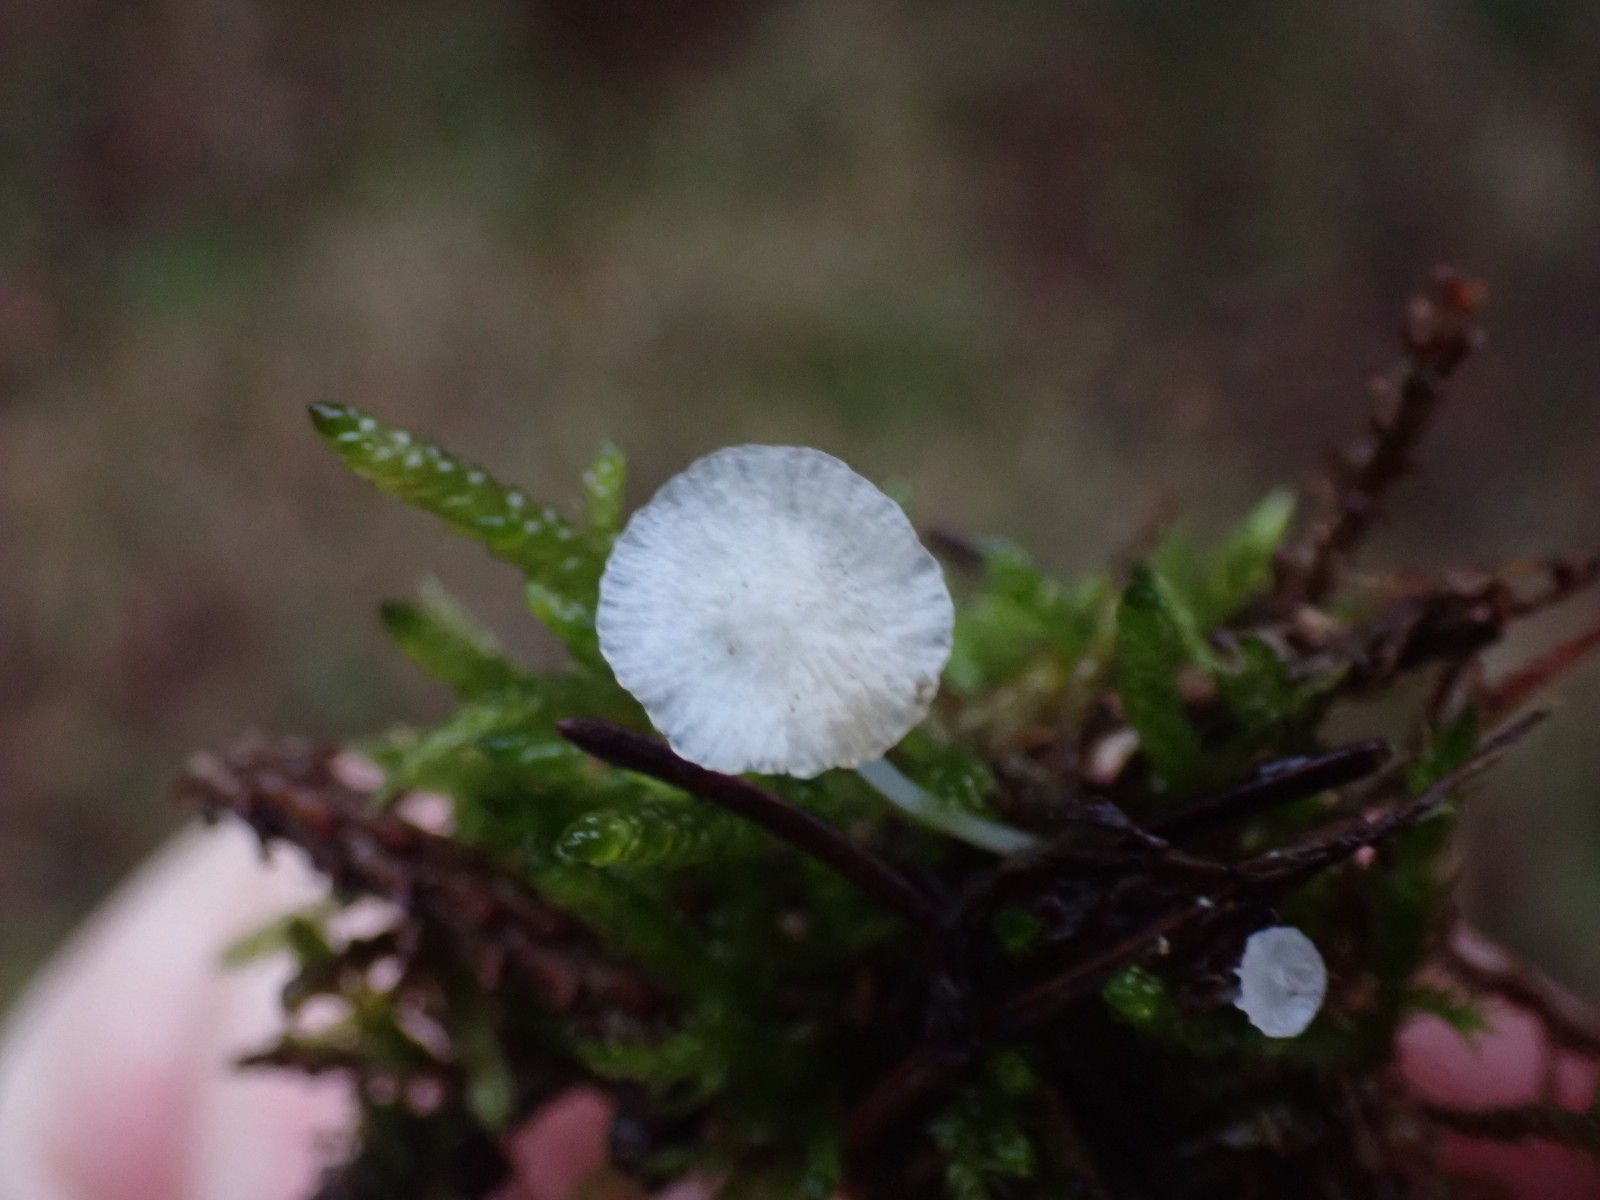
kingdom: Fungi
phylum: Basidiomycota
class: Agaricomycetes
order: Agaricales
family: Mycenaceae
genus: Hemimycena
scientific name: Hemimycena
